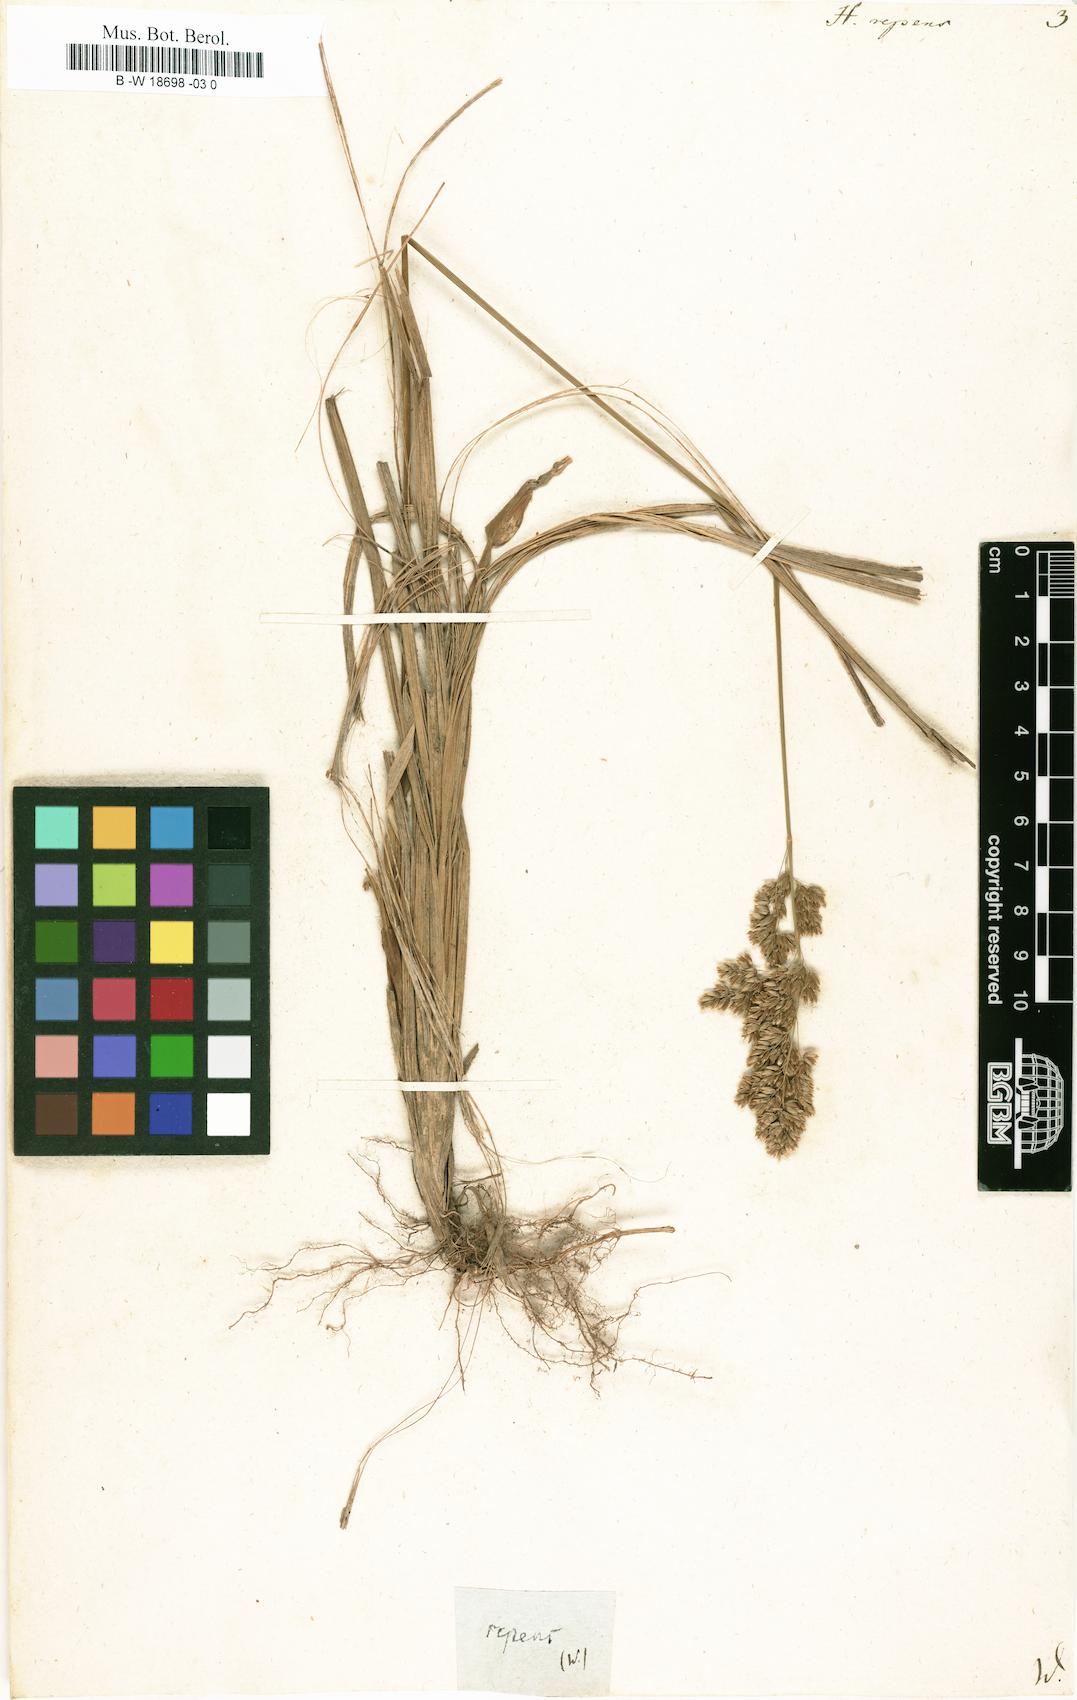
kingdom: Plantae
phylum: Tracheophyta
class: Liliopsida
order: Poales
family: Poaceae
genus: Anthoxanthum
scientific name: Anthoxanthum repens
